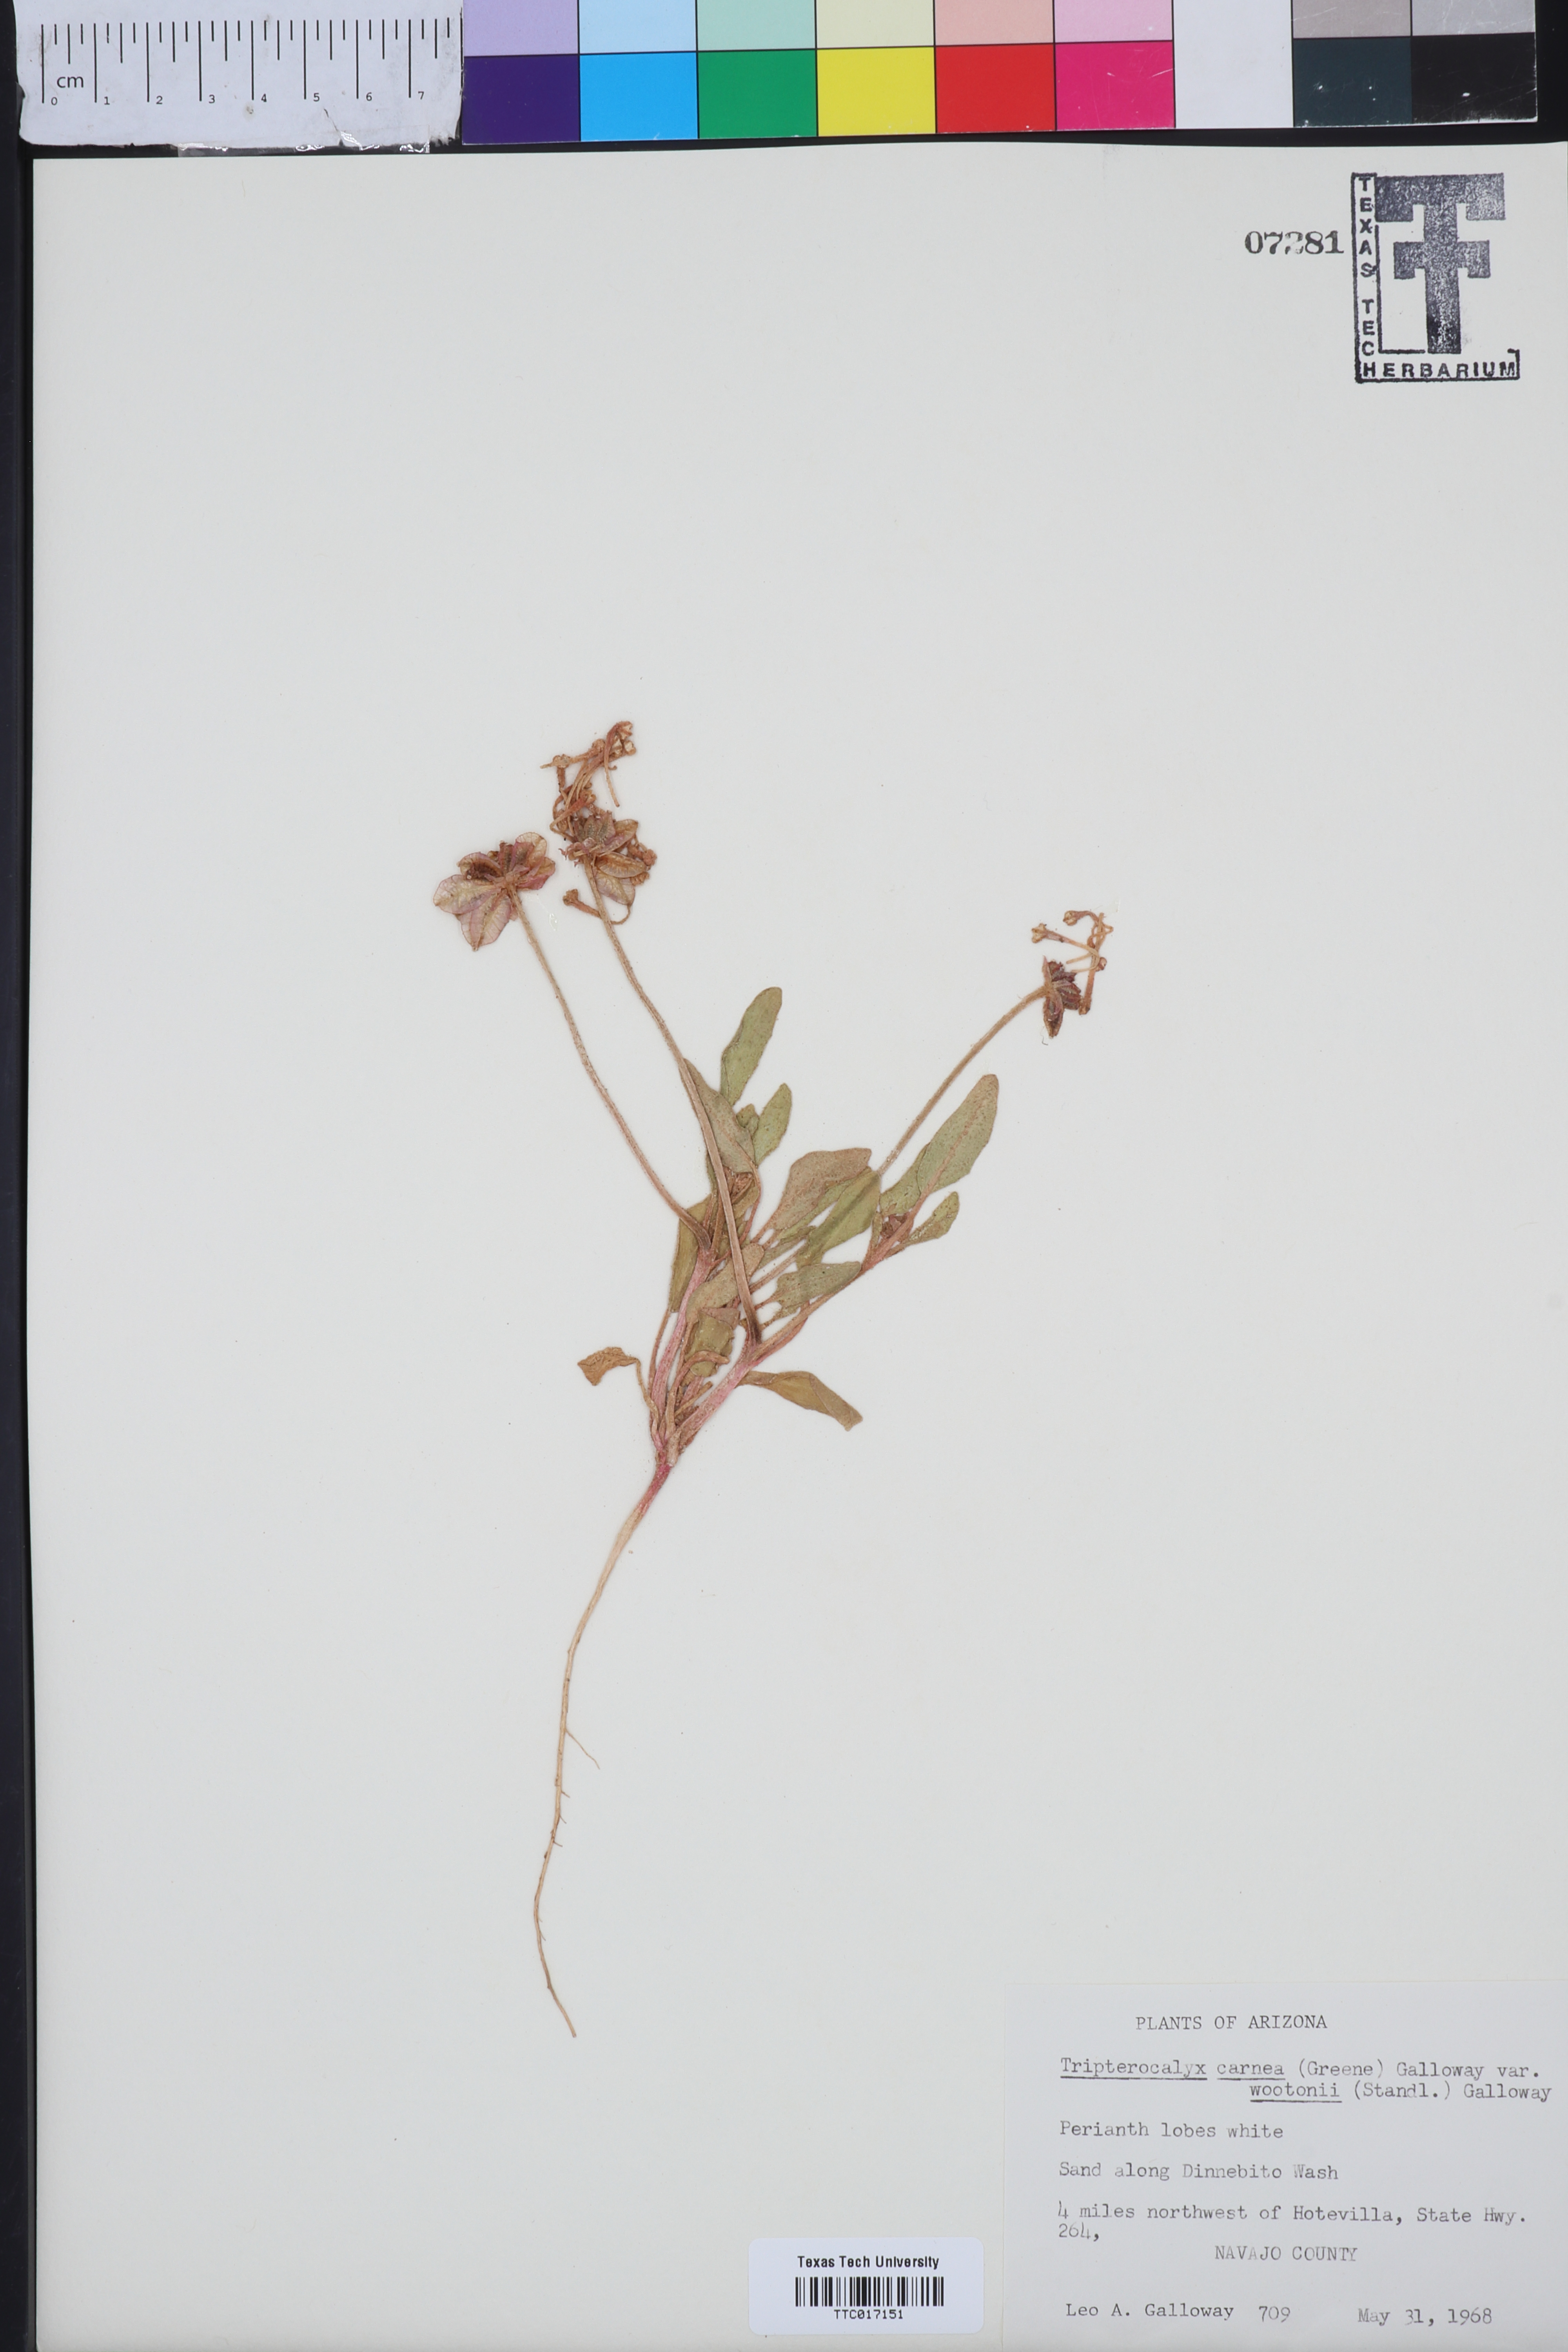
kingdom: Plantae
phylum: Tracheophyta
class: Magnoliopsida
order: Caryophyllales
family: Nyctaginaceae
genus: Tripterocalyx
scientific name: Tripterocalyx wootonii
